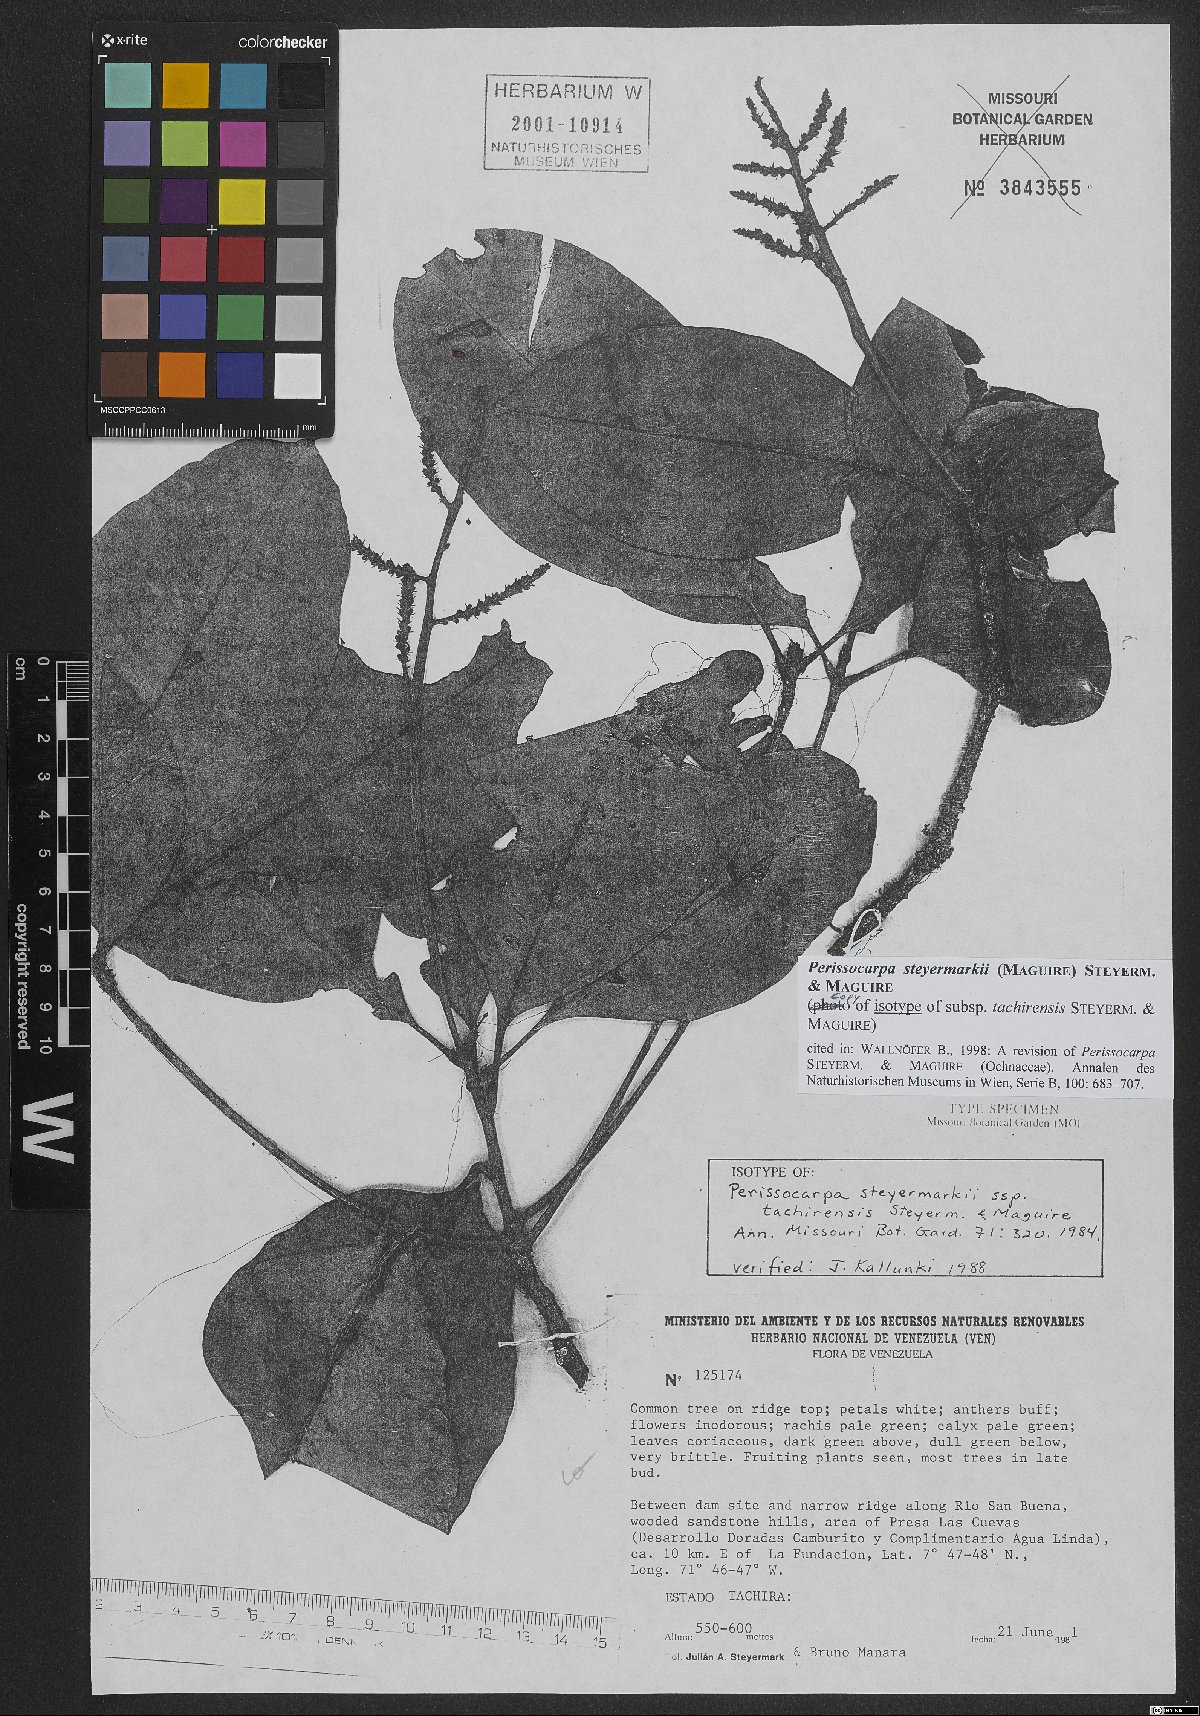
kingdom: Plantae
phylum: Tracheophyta
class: Magnoliopsida
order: Malpighiales
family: Ochnaceae
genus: Perissocarpa
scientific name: Perissocarpa steyermarkii
